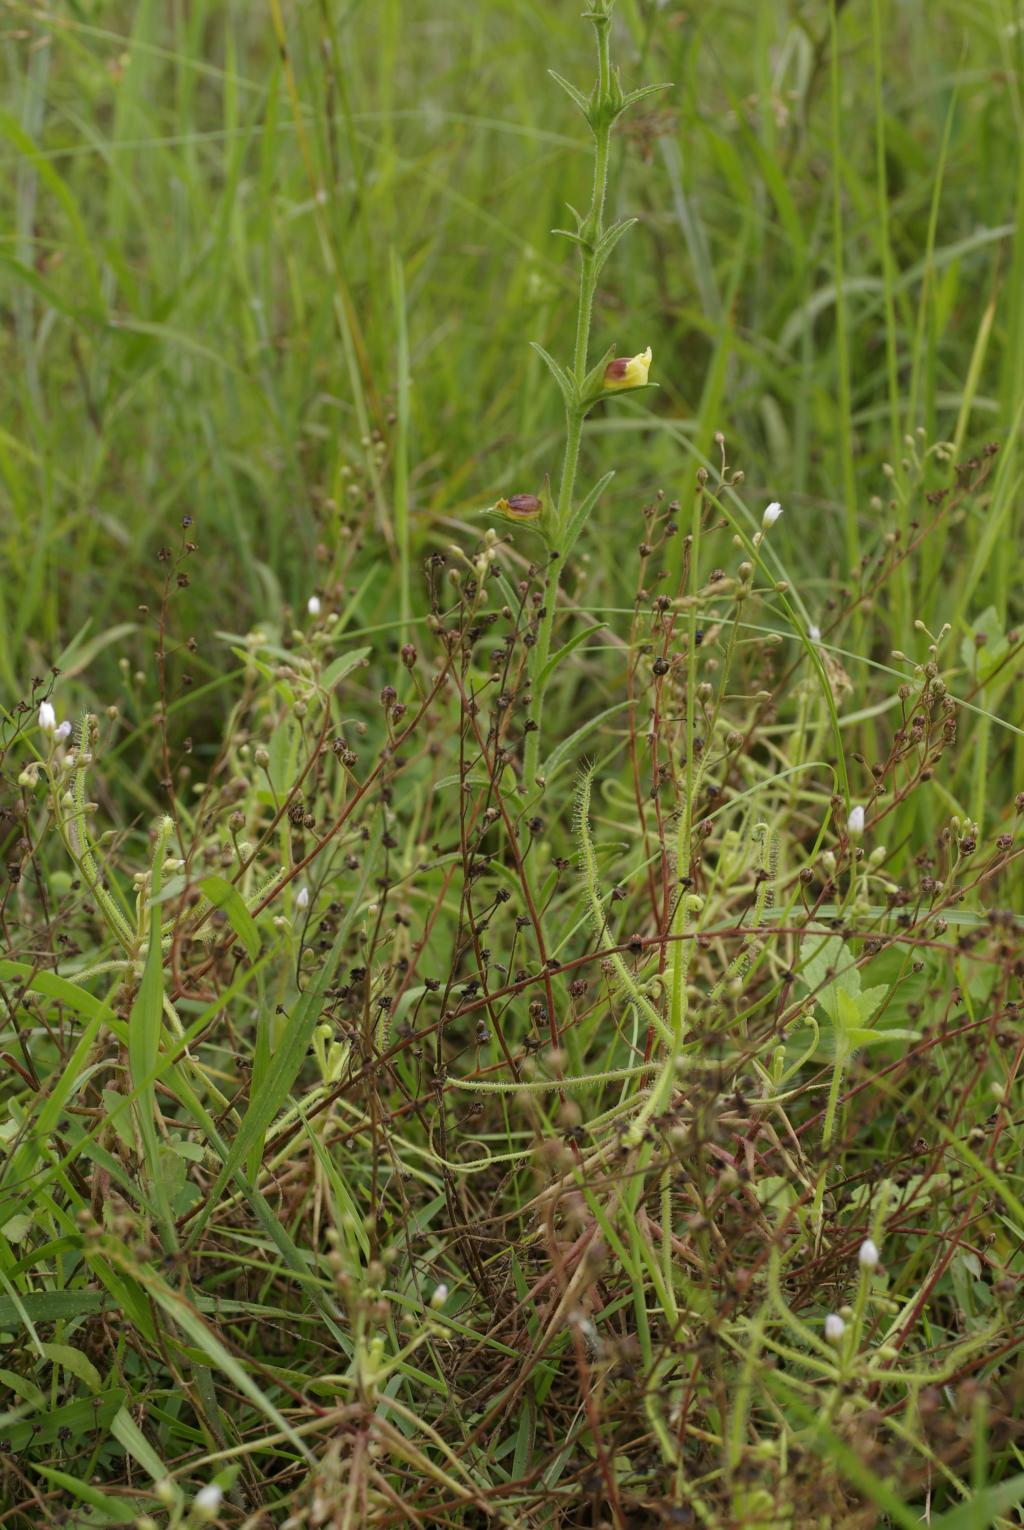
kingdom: Plantae
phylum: Tracheophyta
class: Magnoliopsida
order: Caryophyllales
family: Droseraceae
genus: Drosera
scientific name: Drosera indica
